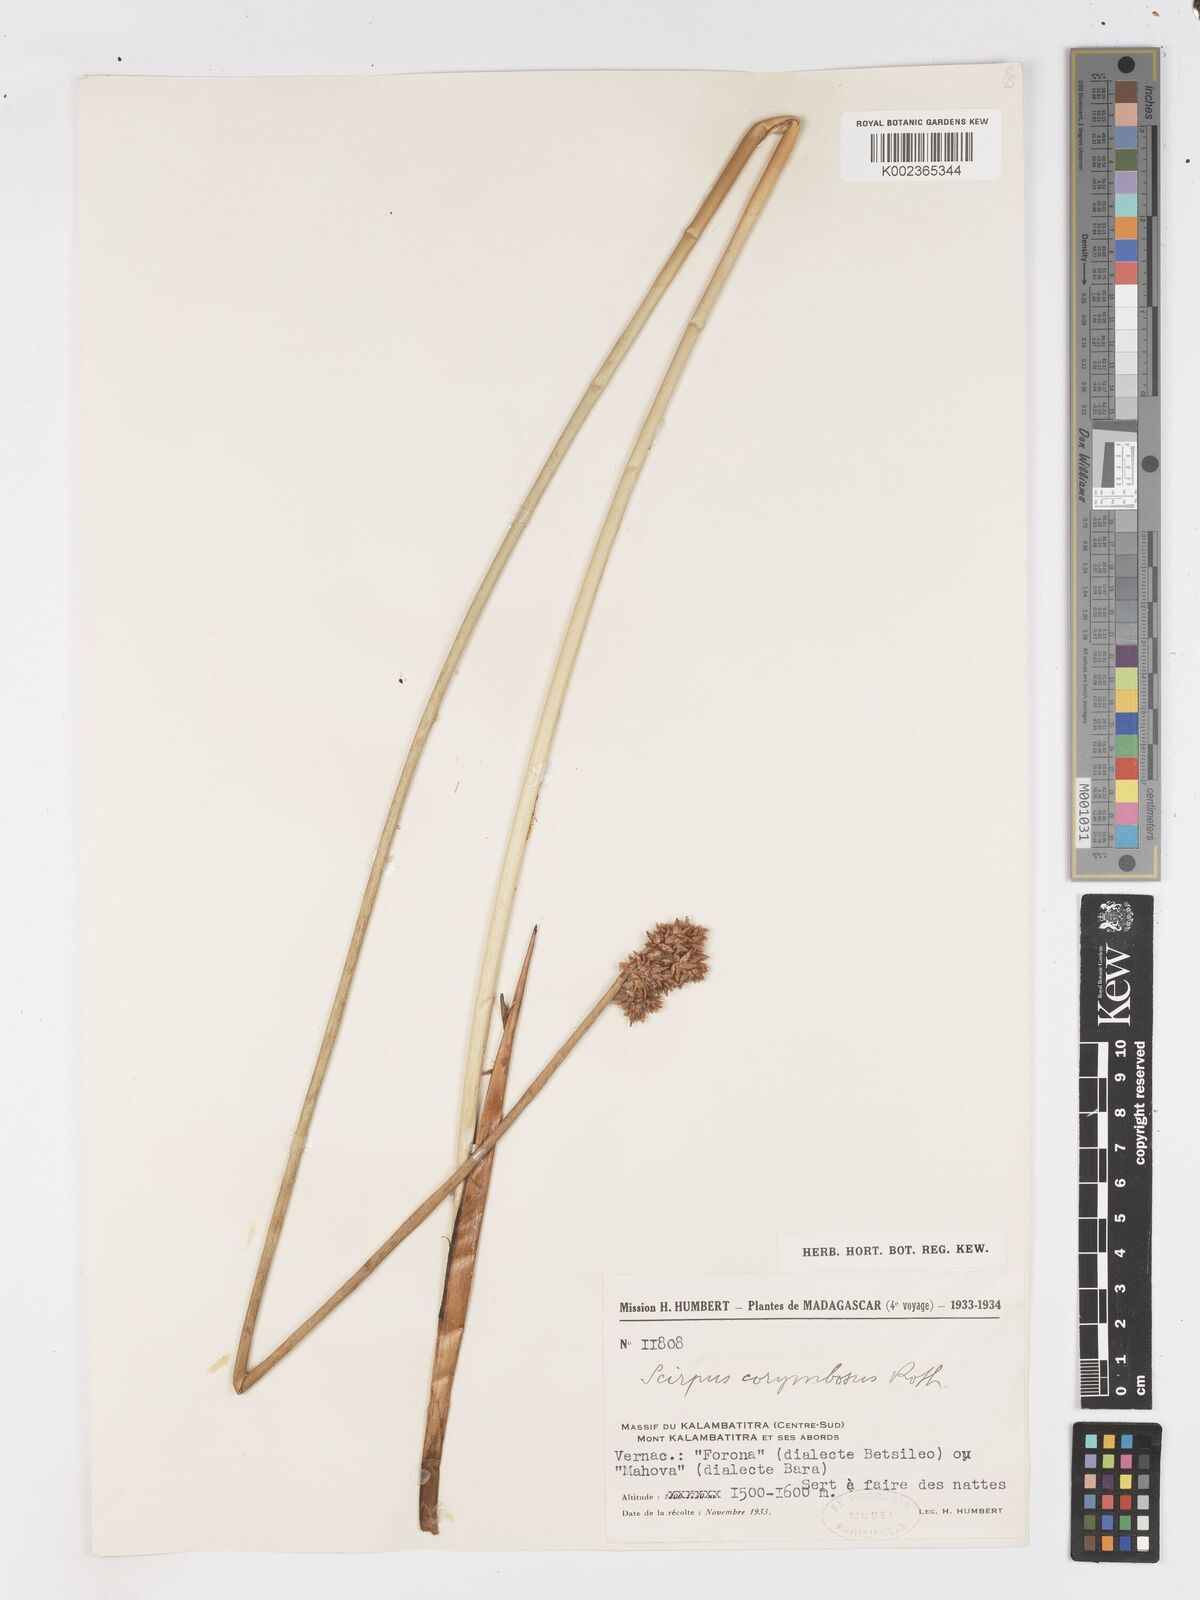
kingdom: Plantae
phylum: Tracheophyta
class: Liliopsida
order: Poales
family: Cyperaceae
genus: Schoenoplectiella
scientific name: Schoenoplectiella corymbosa
